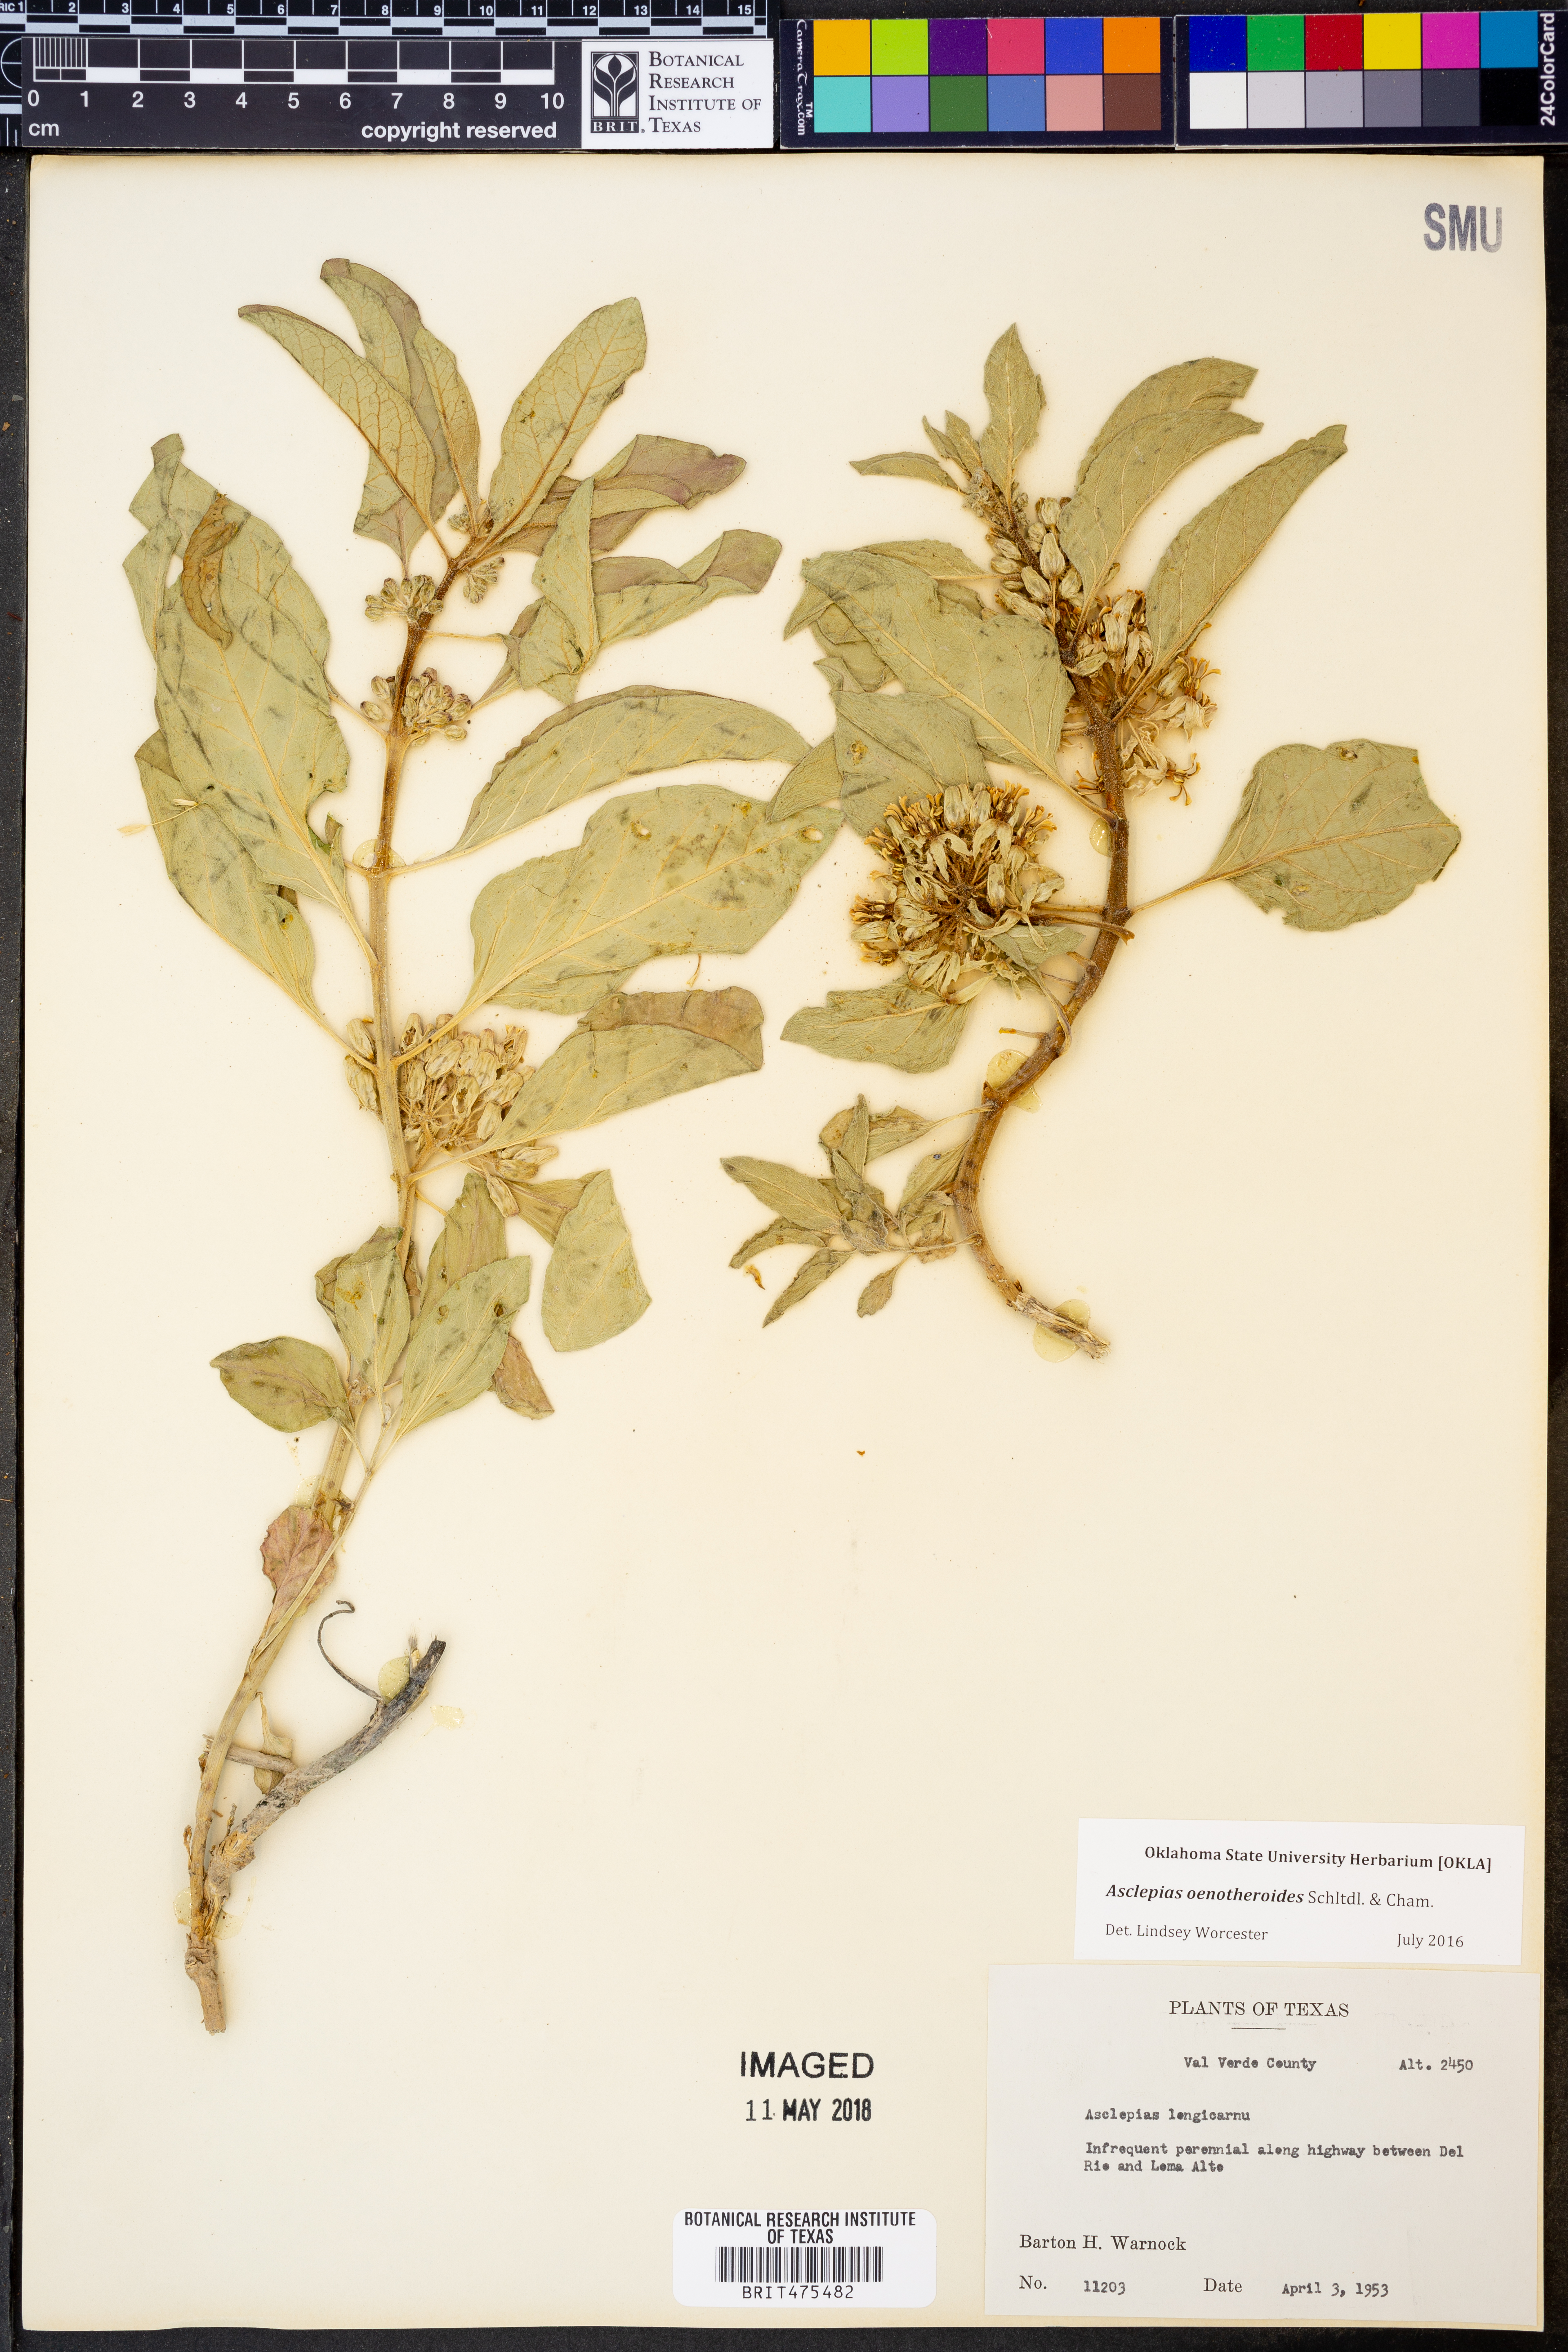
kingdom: Plantae
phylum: Tracheophyta
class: Magnoliopsida
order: Gentianales
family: Apocynaceae
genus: Asclepias
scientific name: Asclepias oenotheroides
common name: Zizotes milkweed
